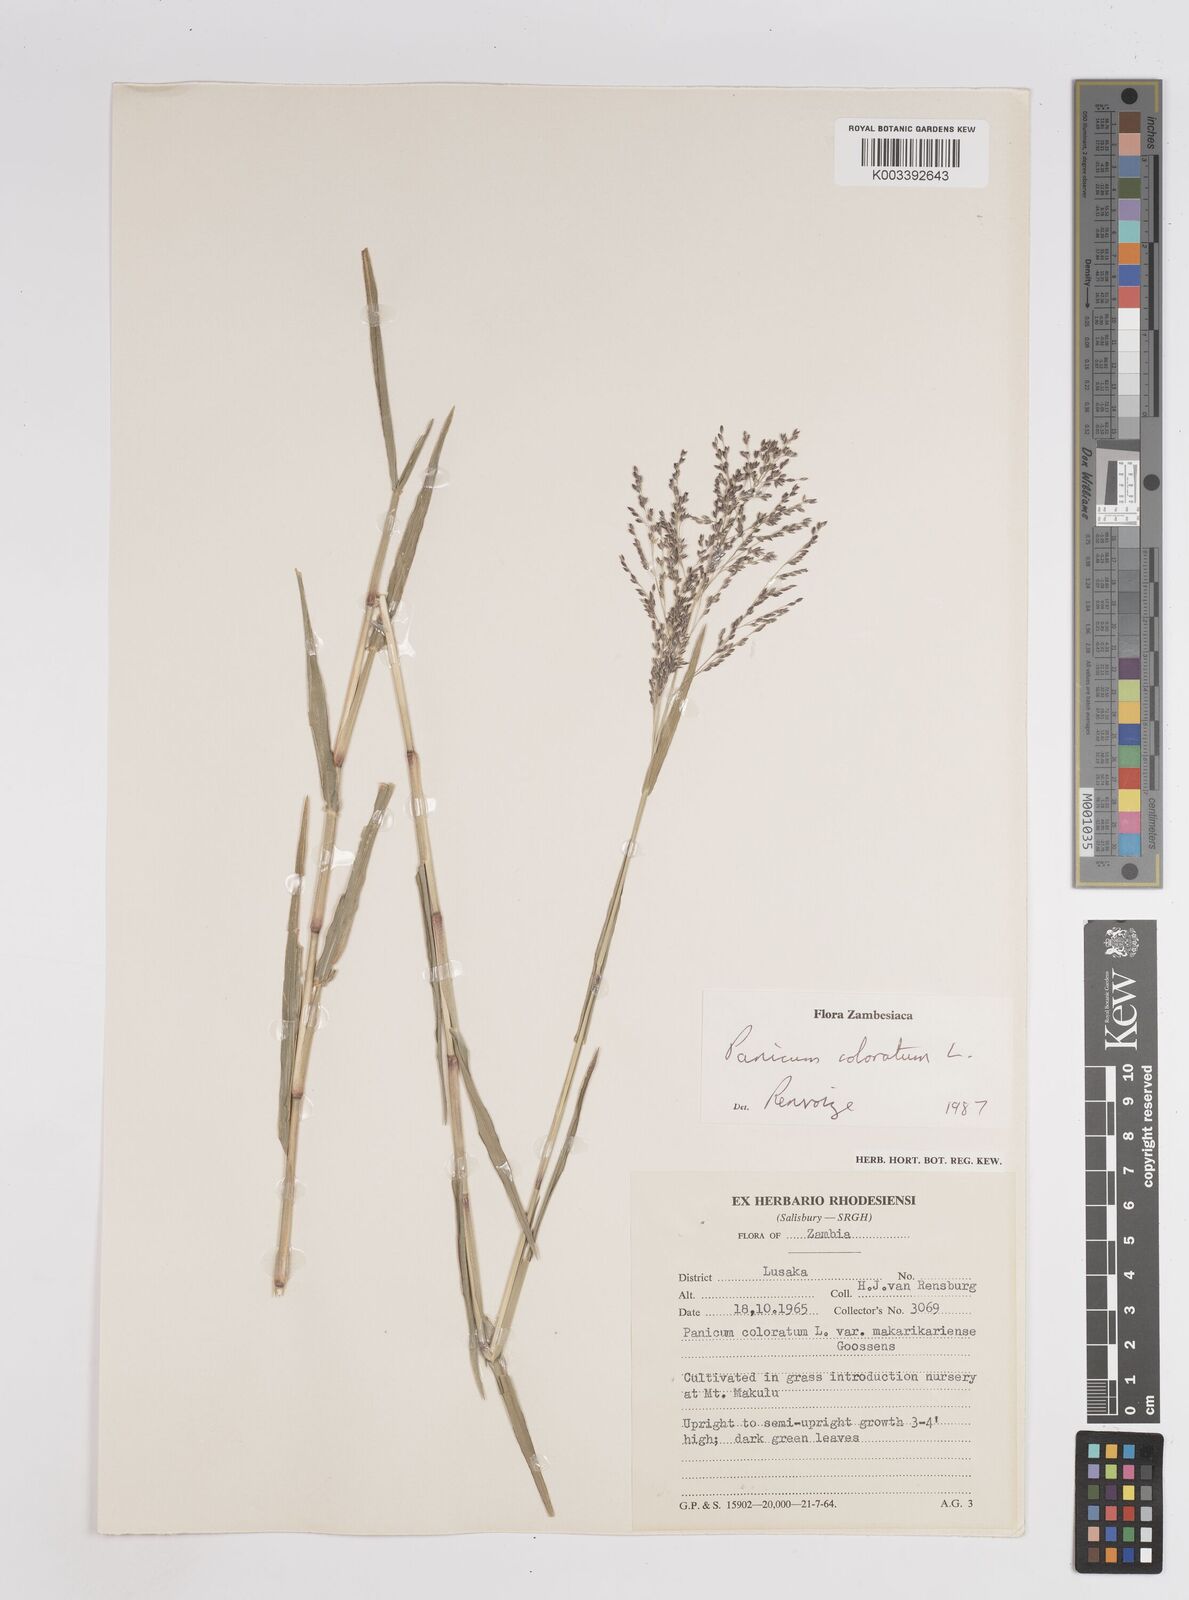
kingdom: Plantae
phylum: Tracheophyta
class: Liliopsida
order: Poales
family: Poaceae
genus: Panicum
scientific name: Panicum
